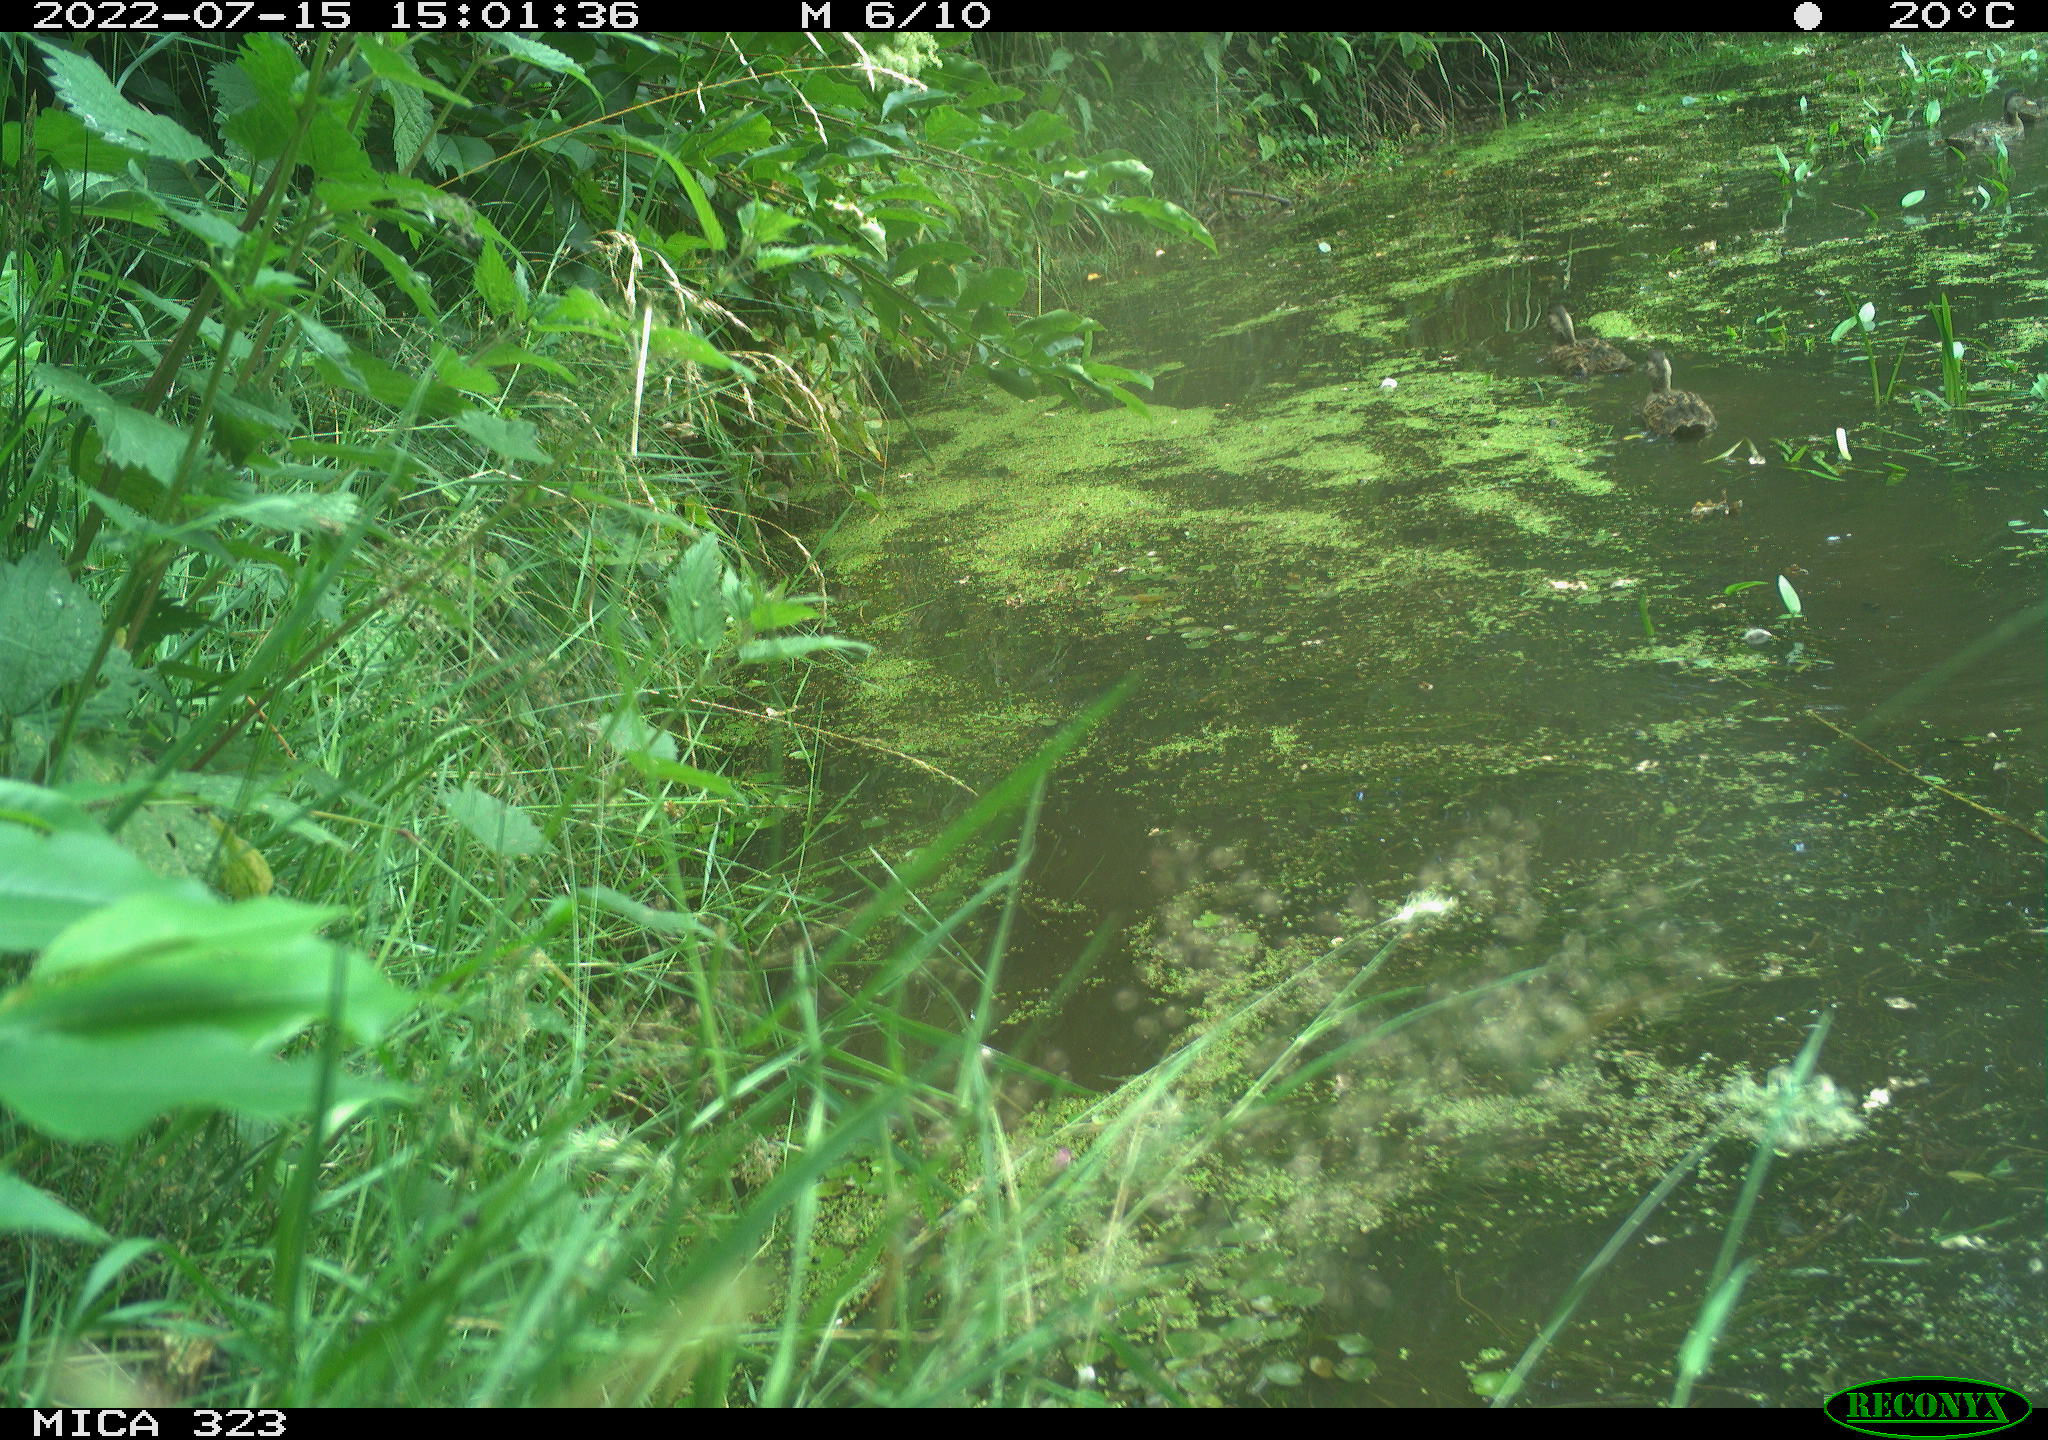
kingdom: Animalia
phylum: Chordata
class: Aves
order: Anseriformes
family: Anatidae
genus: Anas
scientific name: Anas platyrhynchos
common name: Mallard
